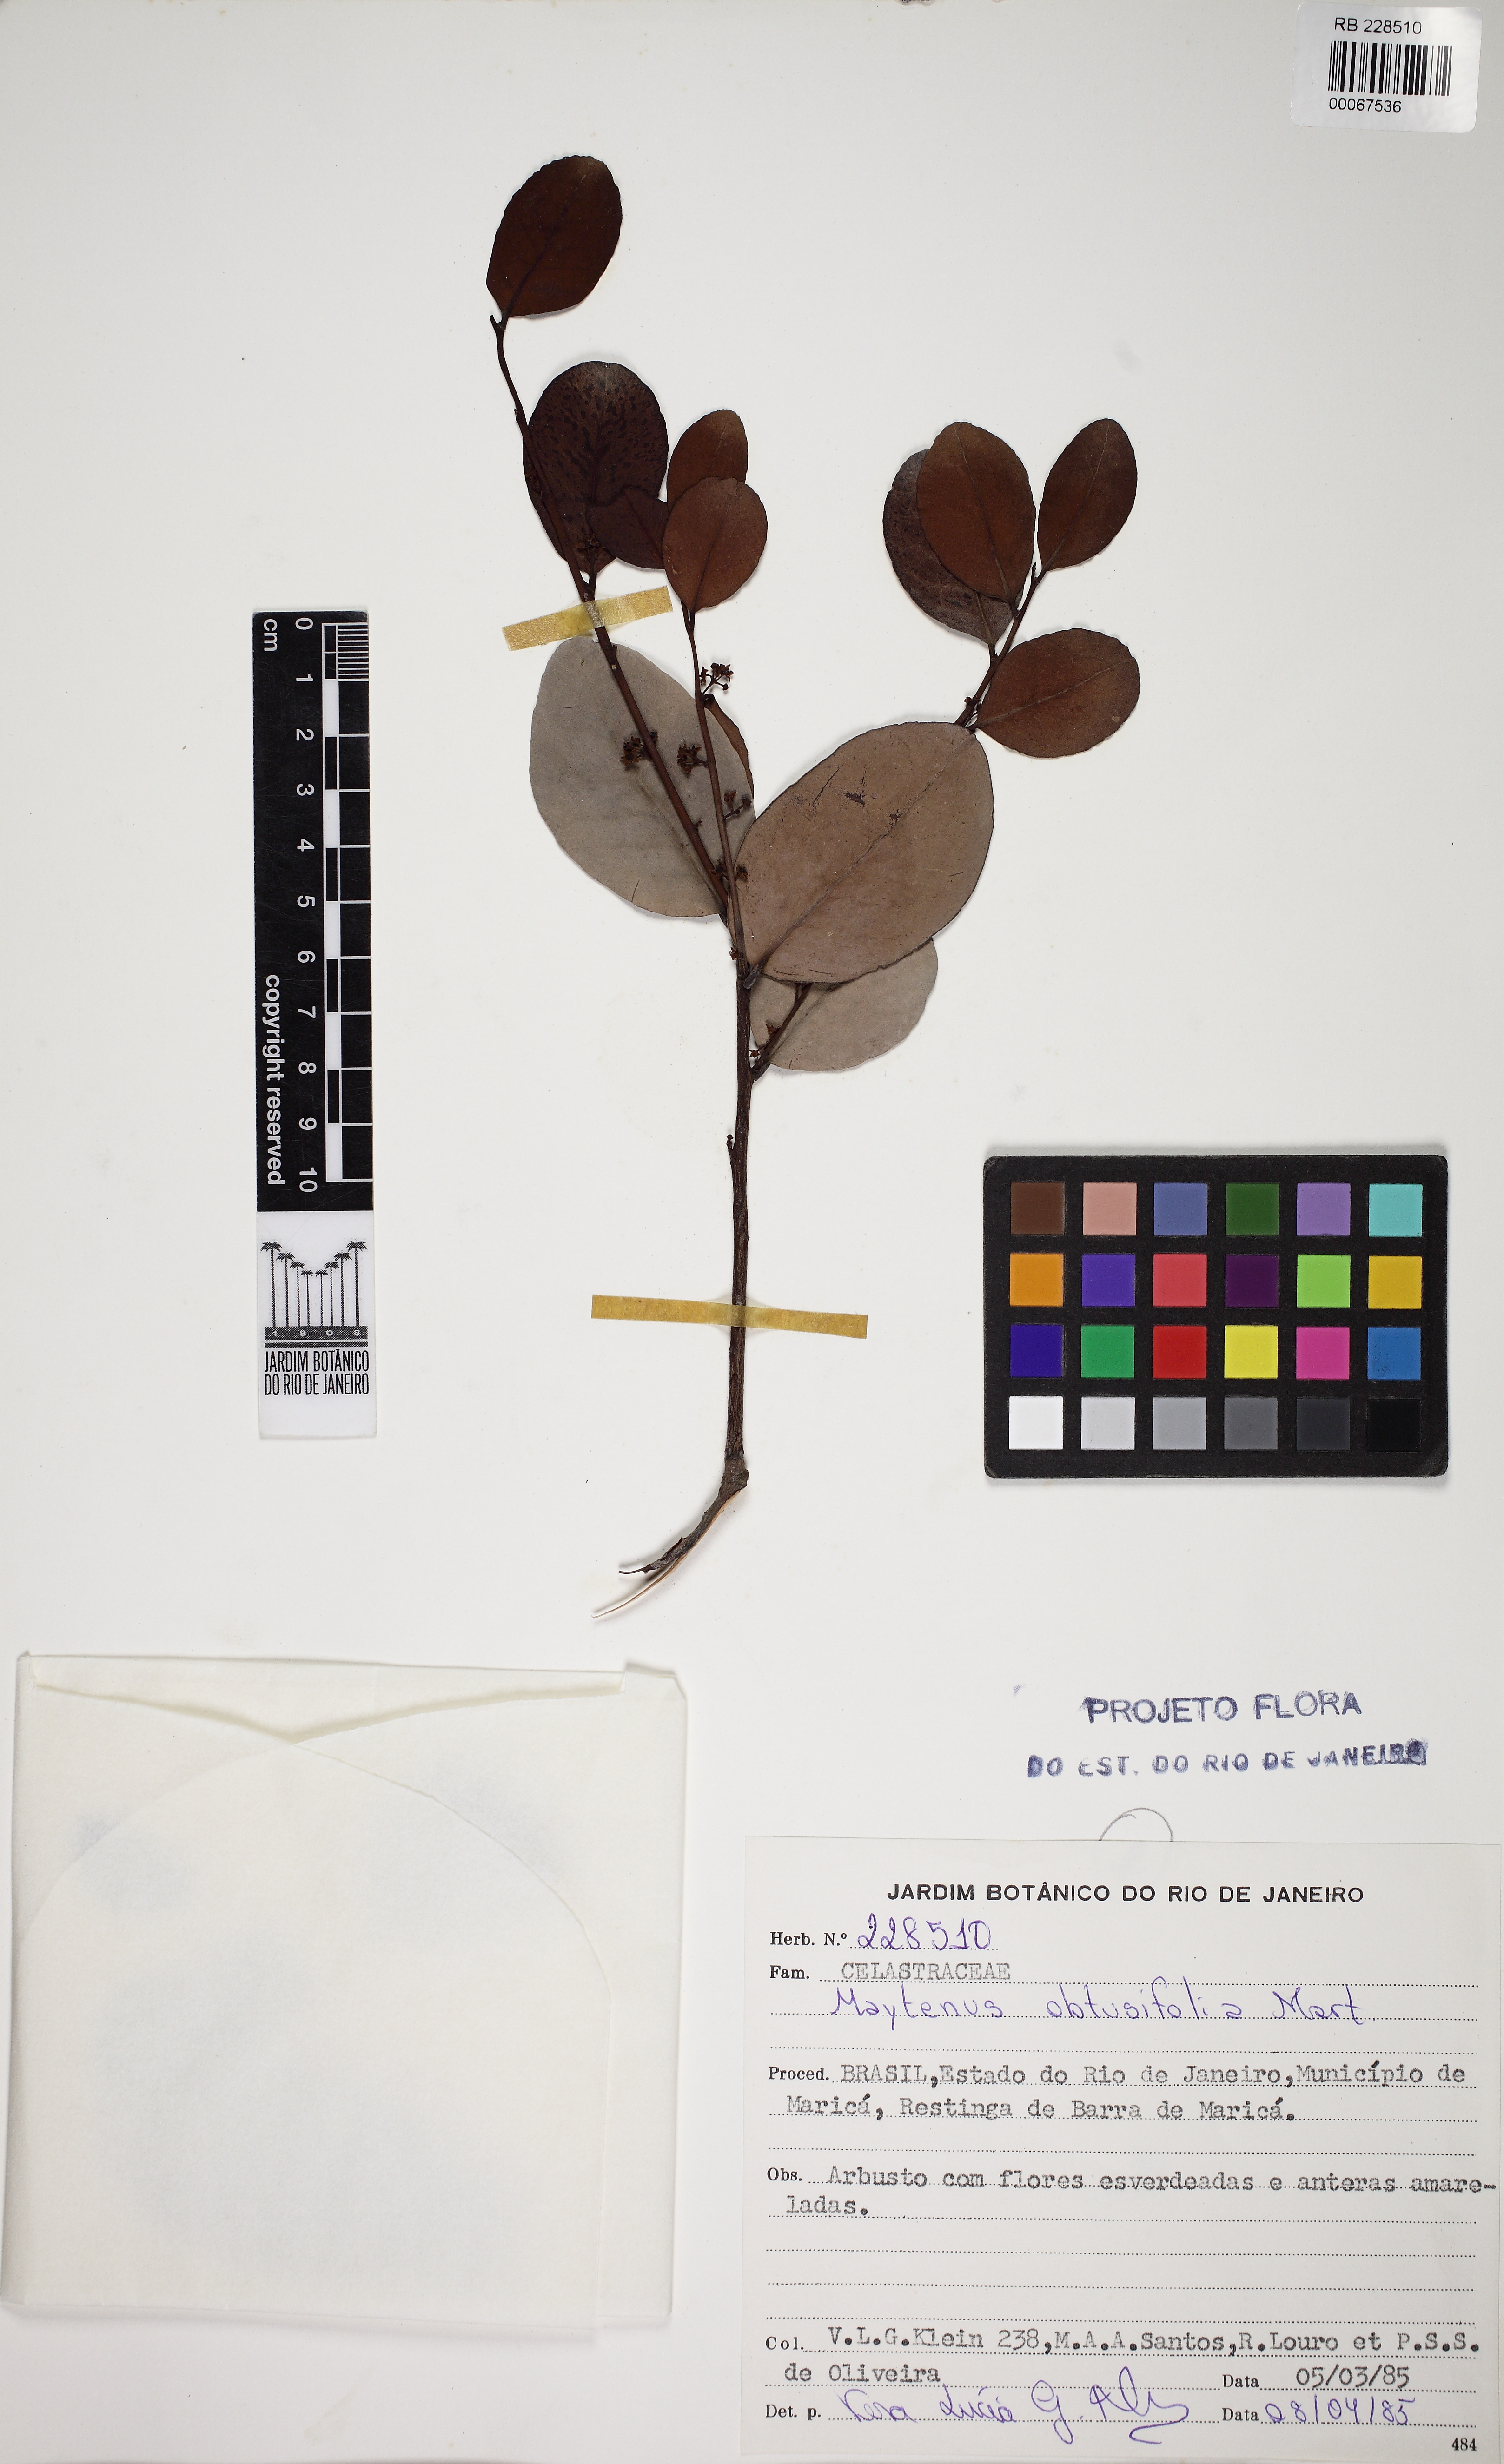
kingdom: Plantae
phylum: Tracheophyta
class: Magnoliopsida
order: Celastrales
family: Celastraceae
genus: Monteverdia
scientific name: Monteverdia obtusifolia
